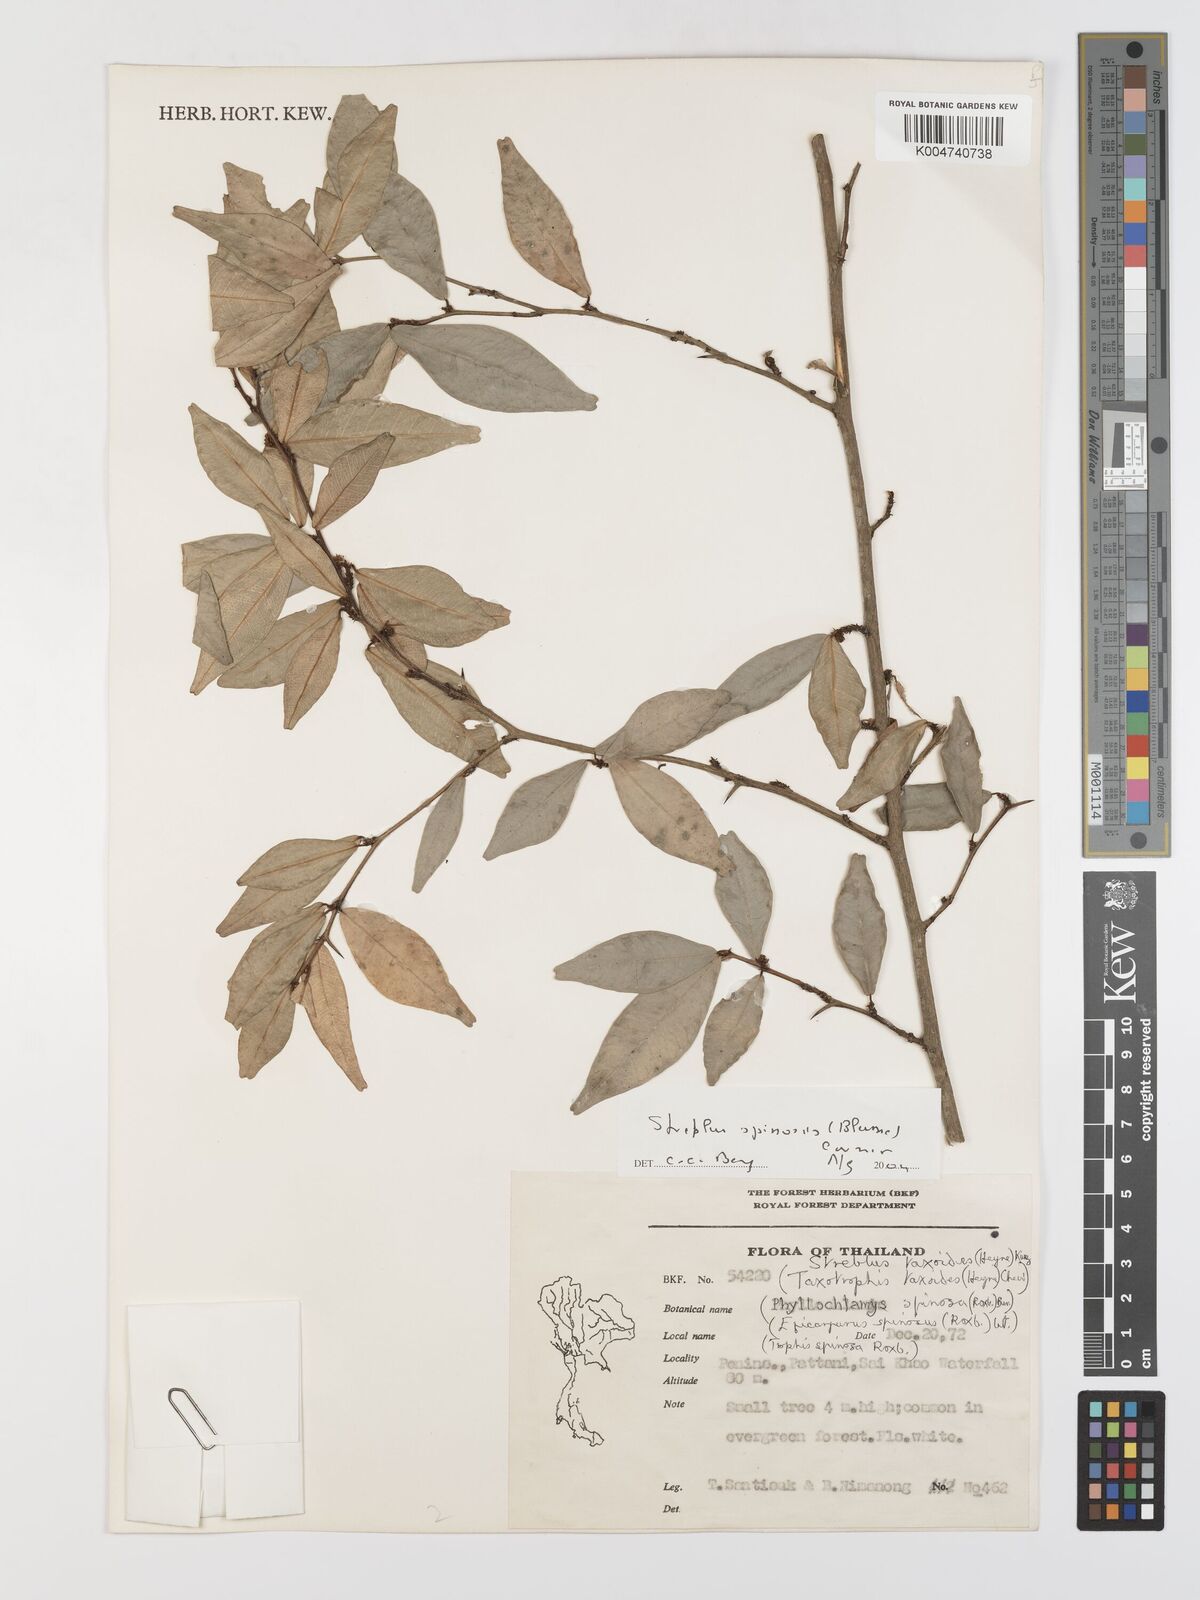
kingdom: Plantae
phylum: Tracheophyta
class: Magnoliopsida
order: Rosales
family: Moraceae
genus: Taxotrophis
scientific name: Taxotrophis spinosa
